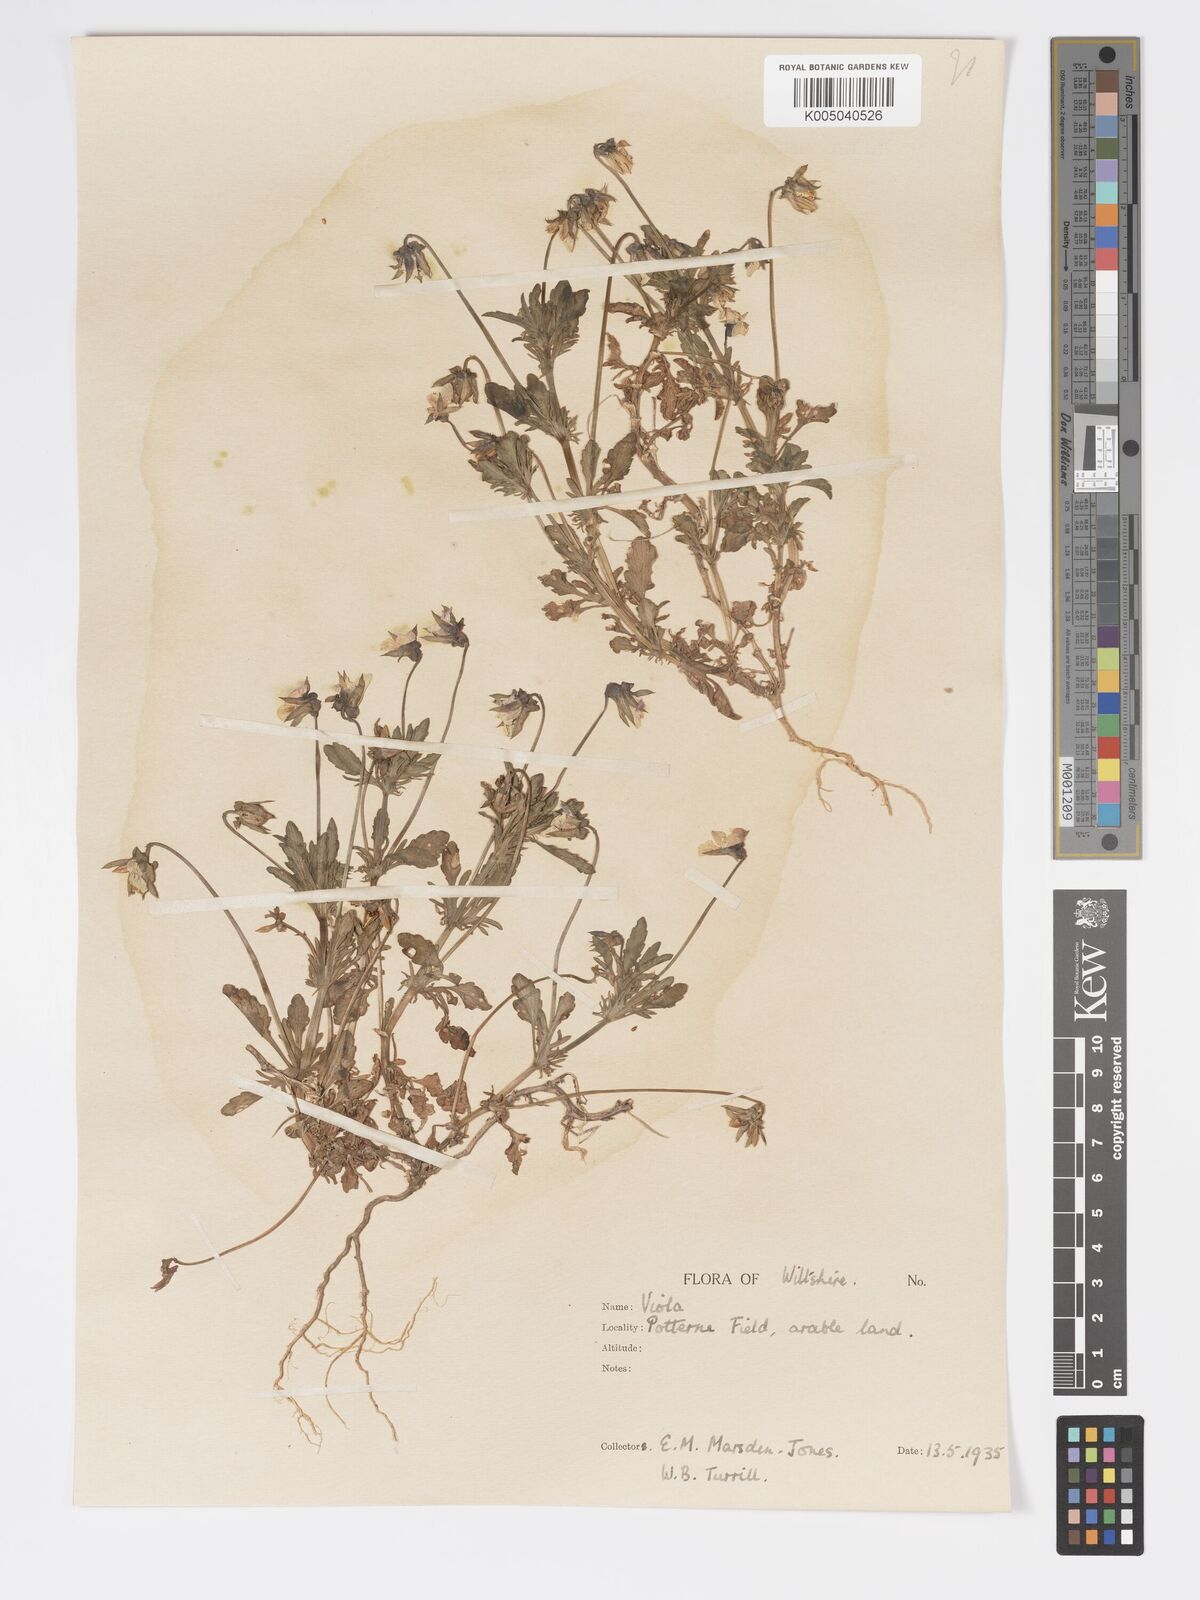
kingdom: Plantae
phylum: Tracheophyta
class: Magnoliopsida
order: Malpighiales
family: Violaceae
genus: Viola
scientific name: Viola
